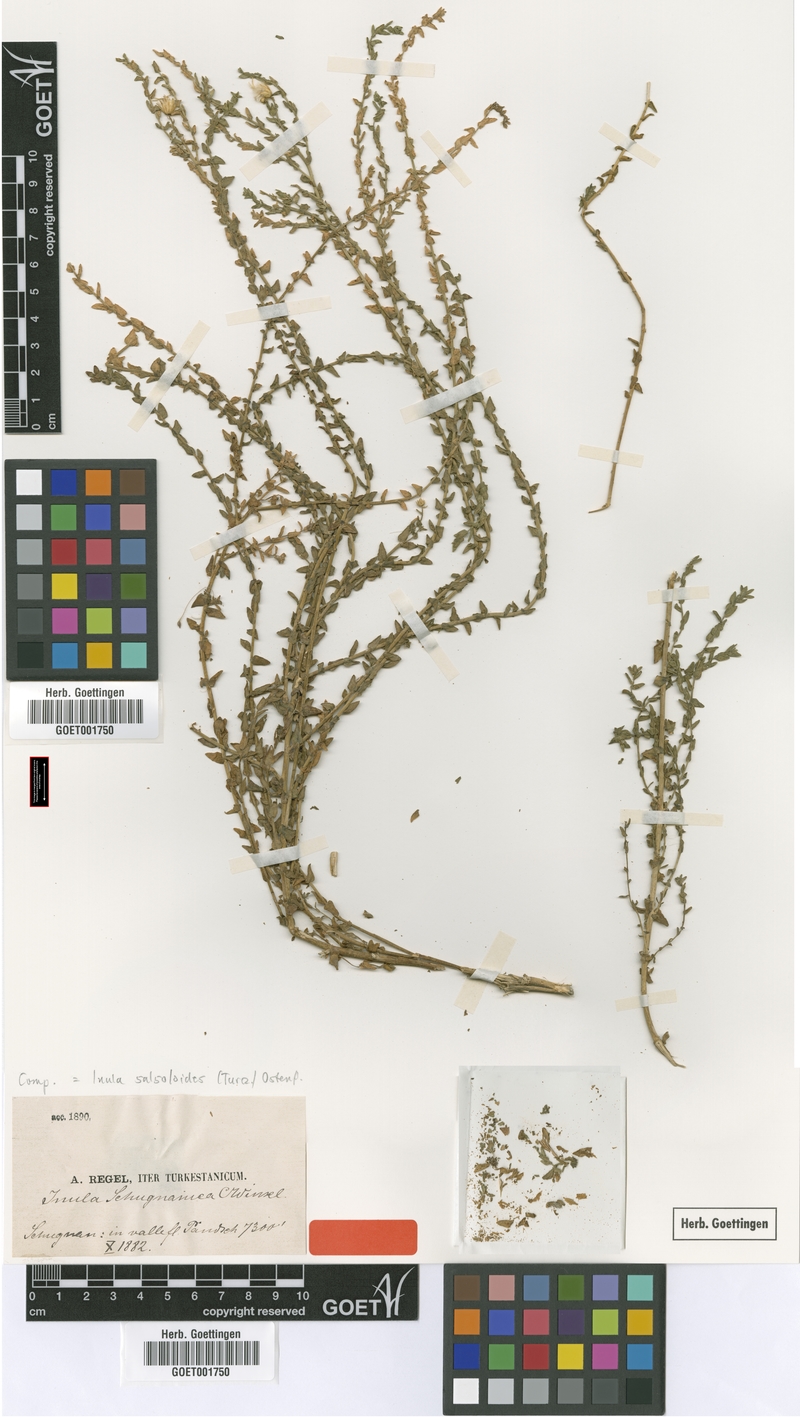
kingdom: Plantae
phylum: Tracheophyta
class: Magnoliopsida
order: Asterales
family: Asteraceae
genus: Inula
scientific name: Inula salsoloides
